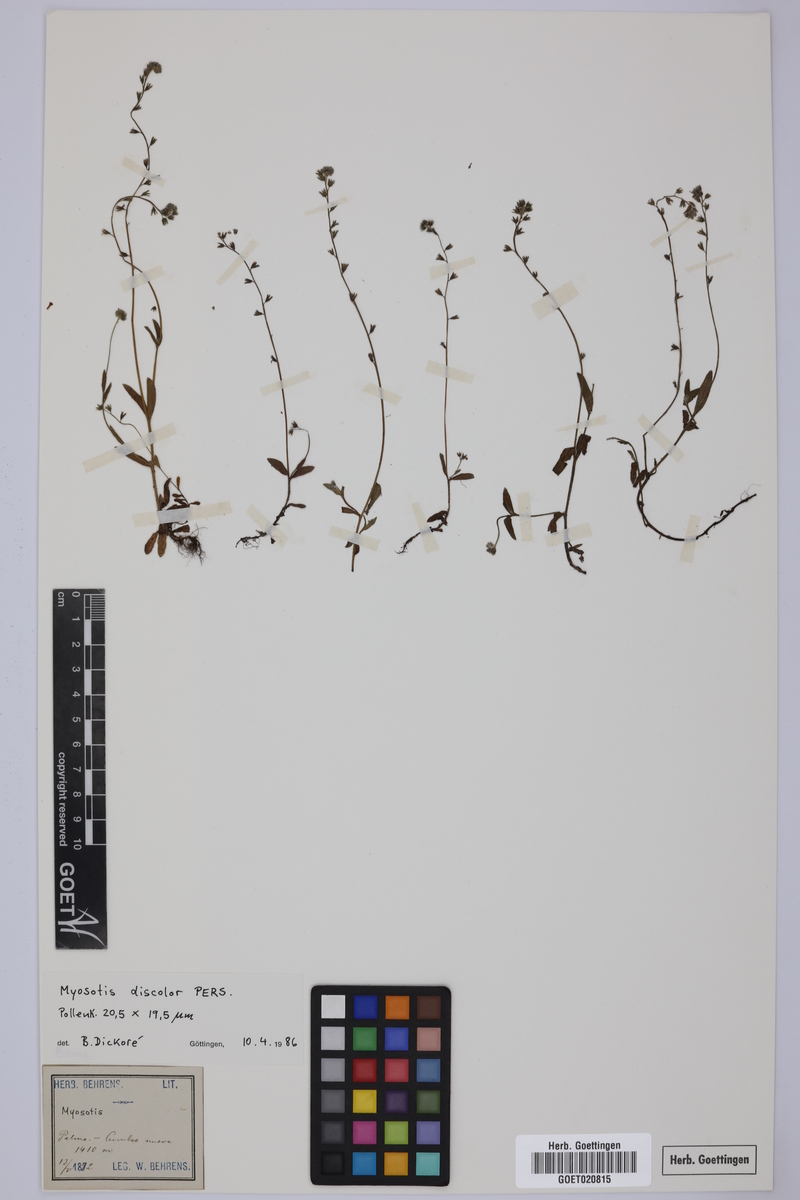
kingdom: Plantae
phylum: Tracheophyta
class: Magnoliopsida
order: Boraginales
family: Boraginaceae
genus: Myosotis
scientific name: Myosotis discolor
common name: Changing forget-me-not
